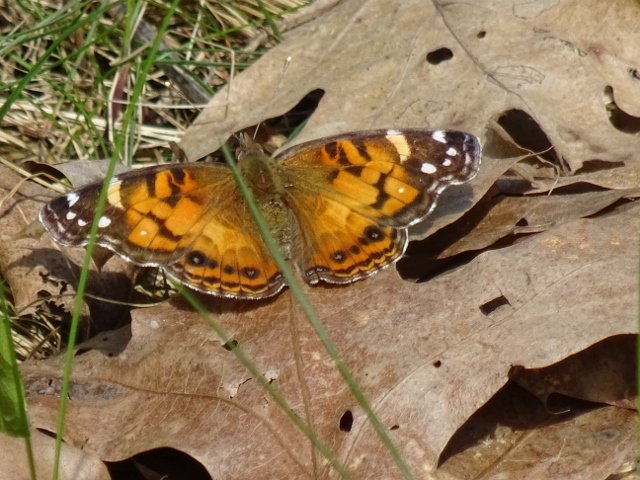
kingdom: Animalia
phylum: Arthropoda
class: Insecta
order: Lepidoptera
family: Nymphalidae
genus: Vanessa
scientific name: Vanessa virginiensis
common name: American Lady
